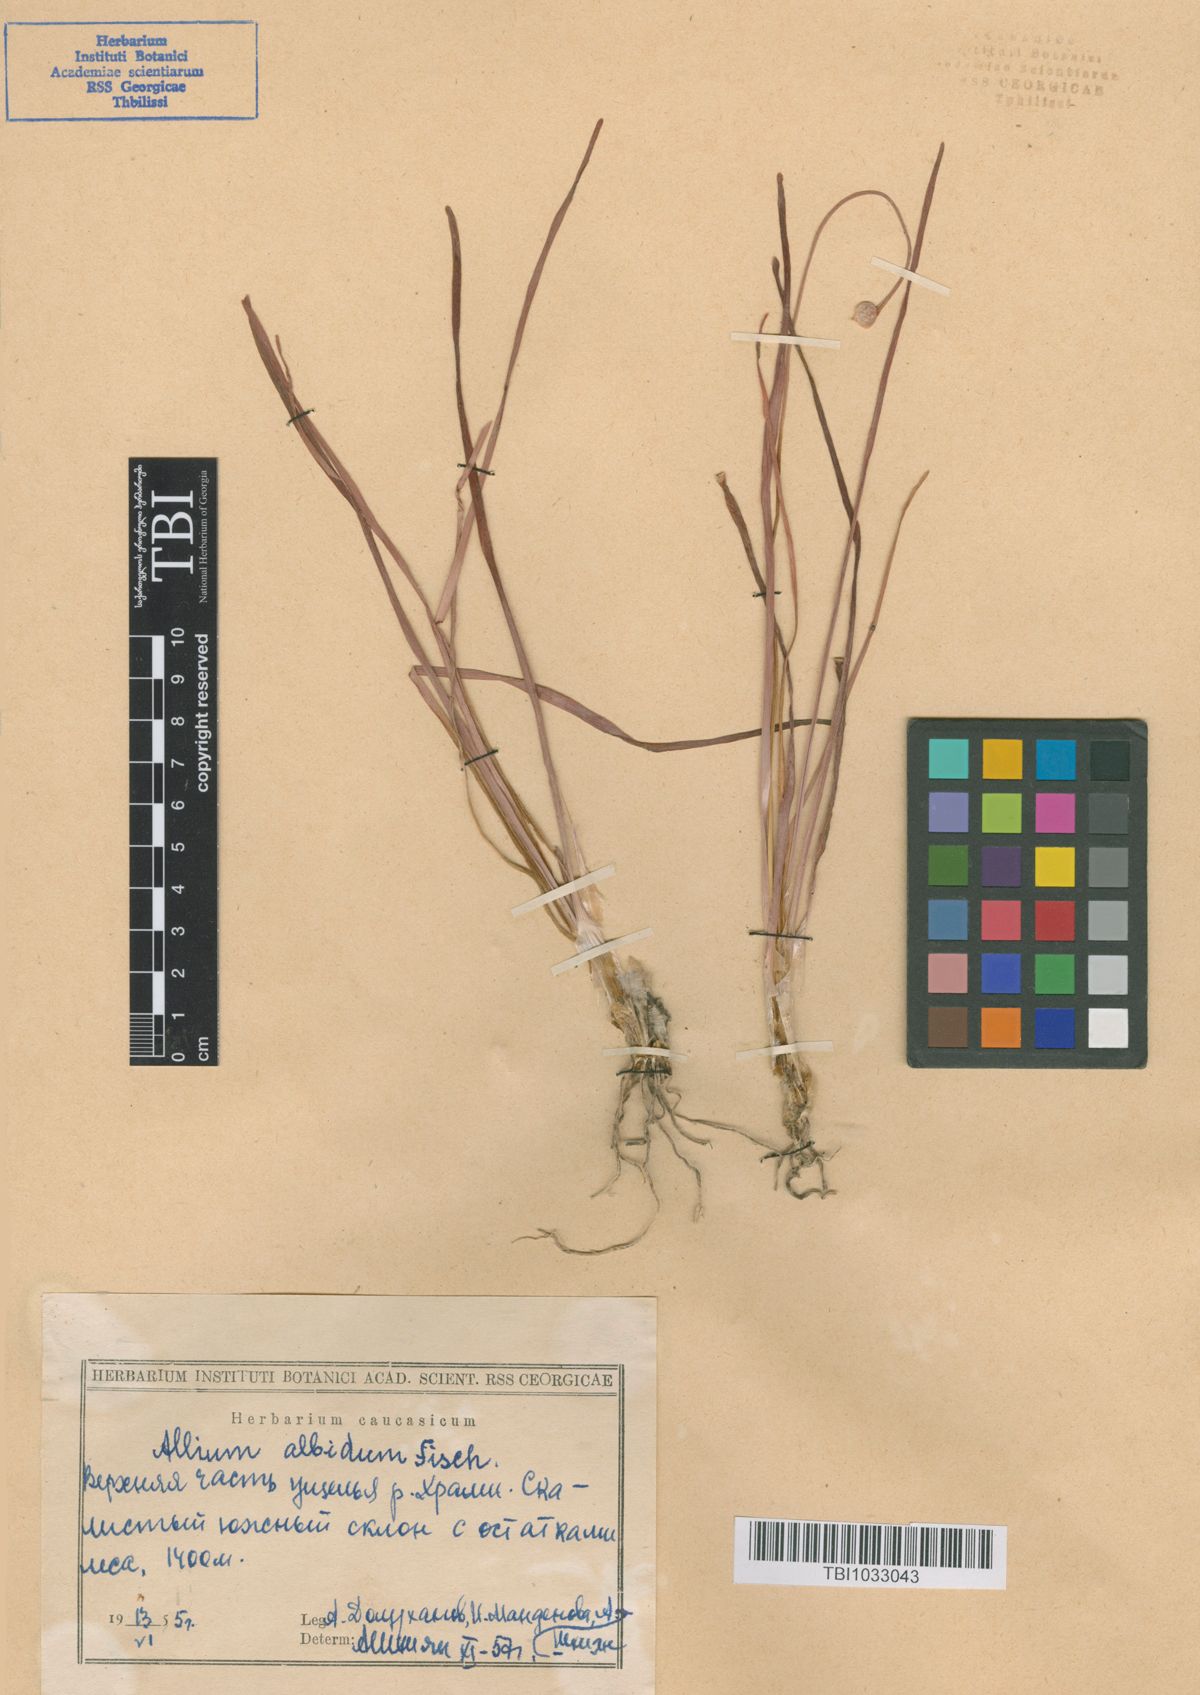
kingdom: Plantae
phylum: Tracheophyta
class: Liliopsida
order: Asparagales
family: Amaryllidaceae
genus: Allium
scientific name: Allium denudatum
